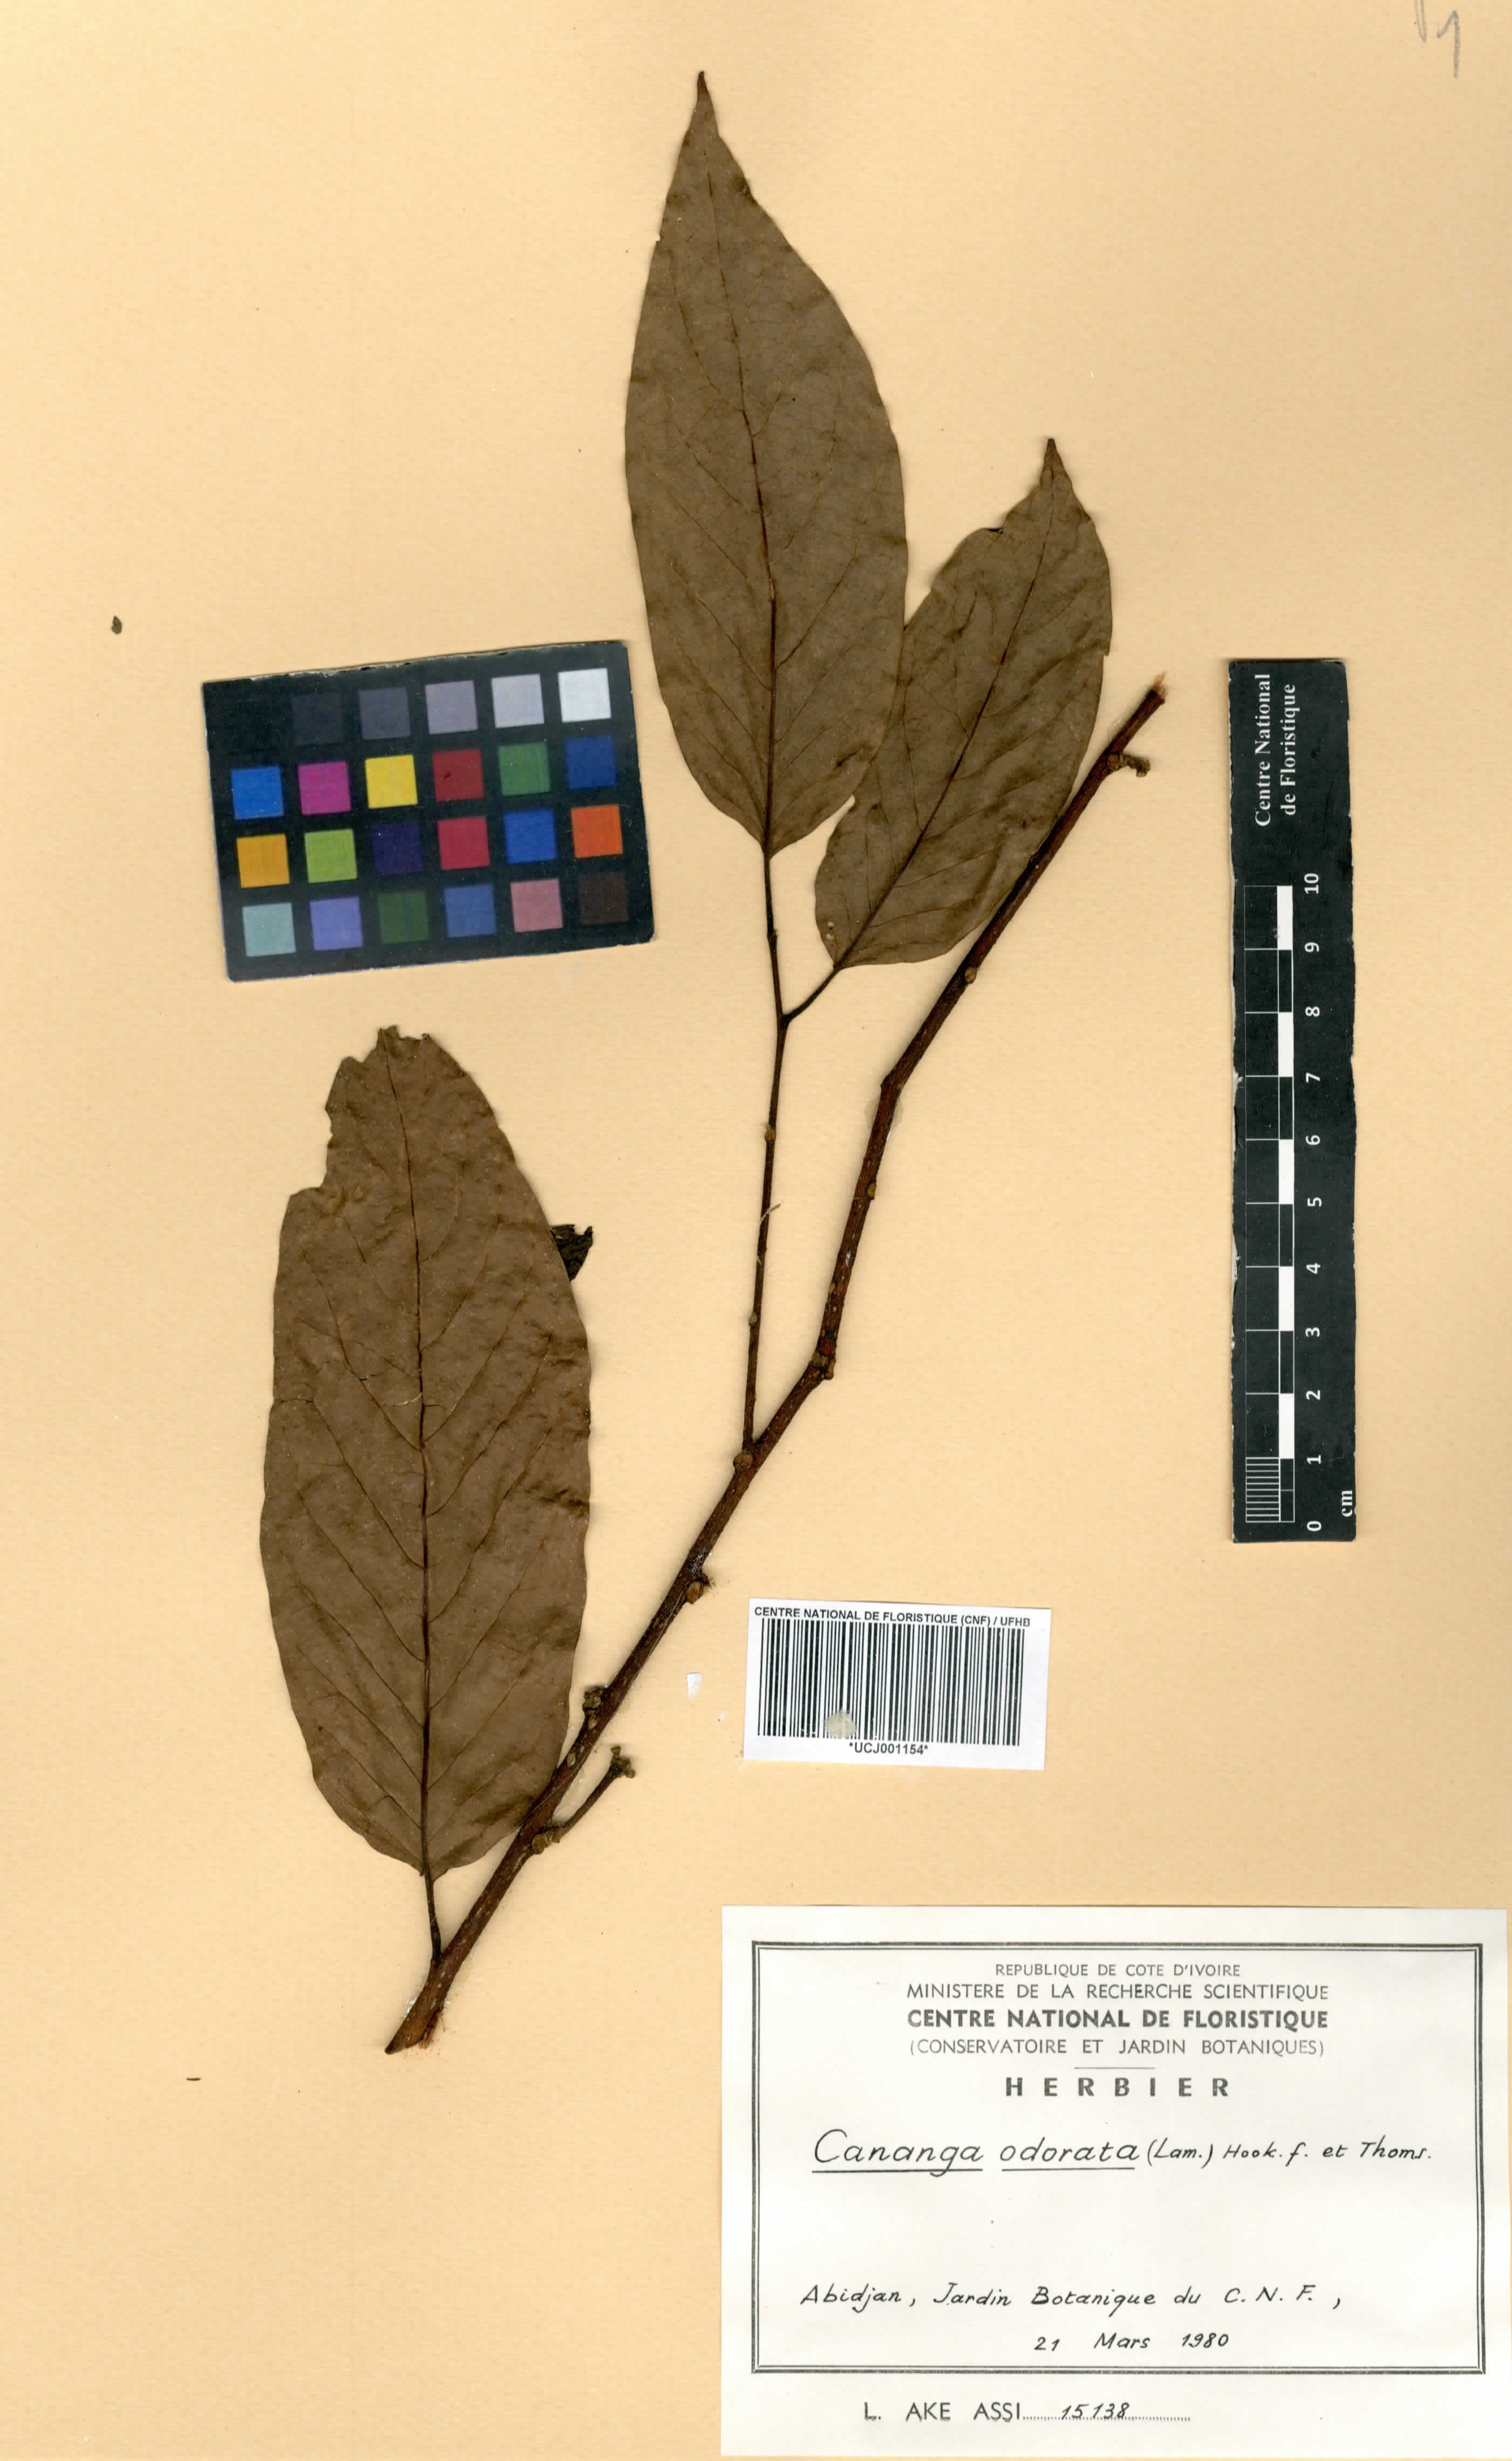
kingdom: Plantae
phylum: Tracheophyta
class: Magnoliopsida
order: Magnoliales
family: Annonaceae
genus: Cananga
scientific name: Cananga odorata
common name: Cananga tree
